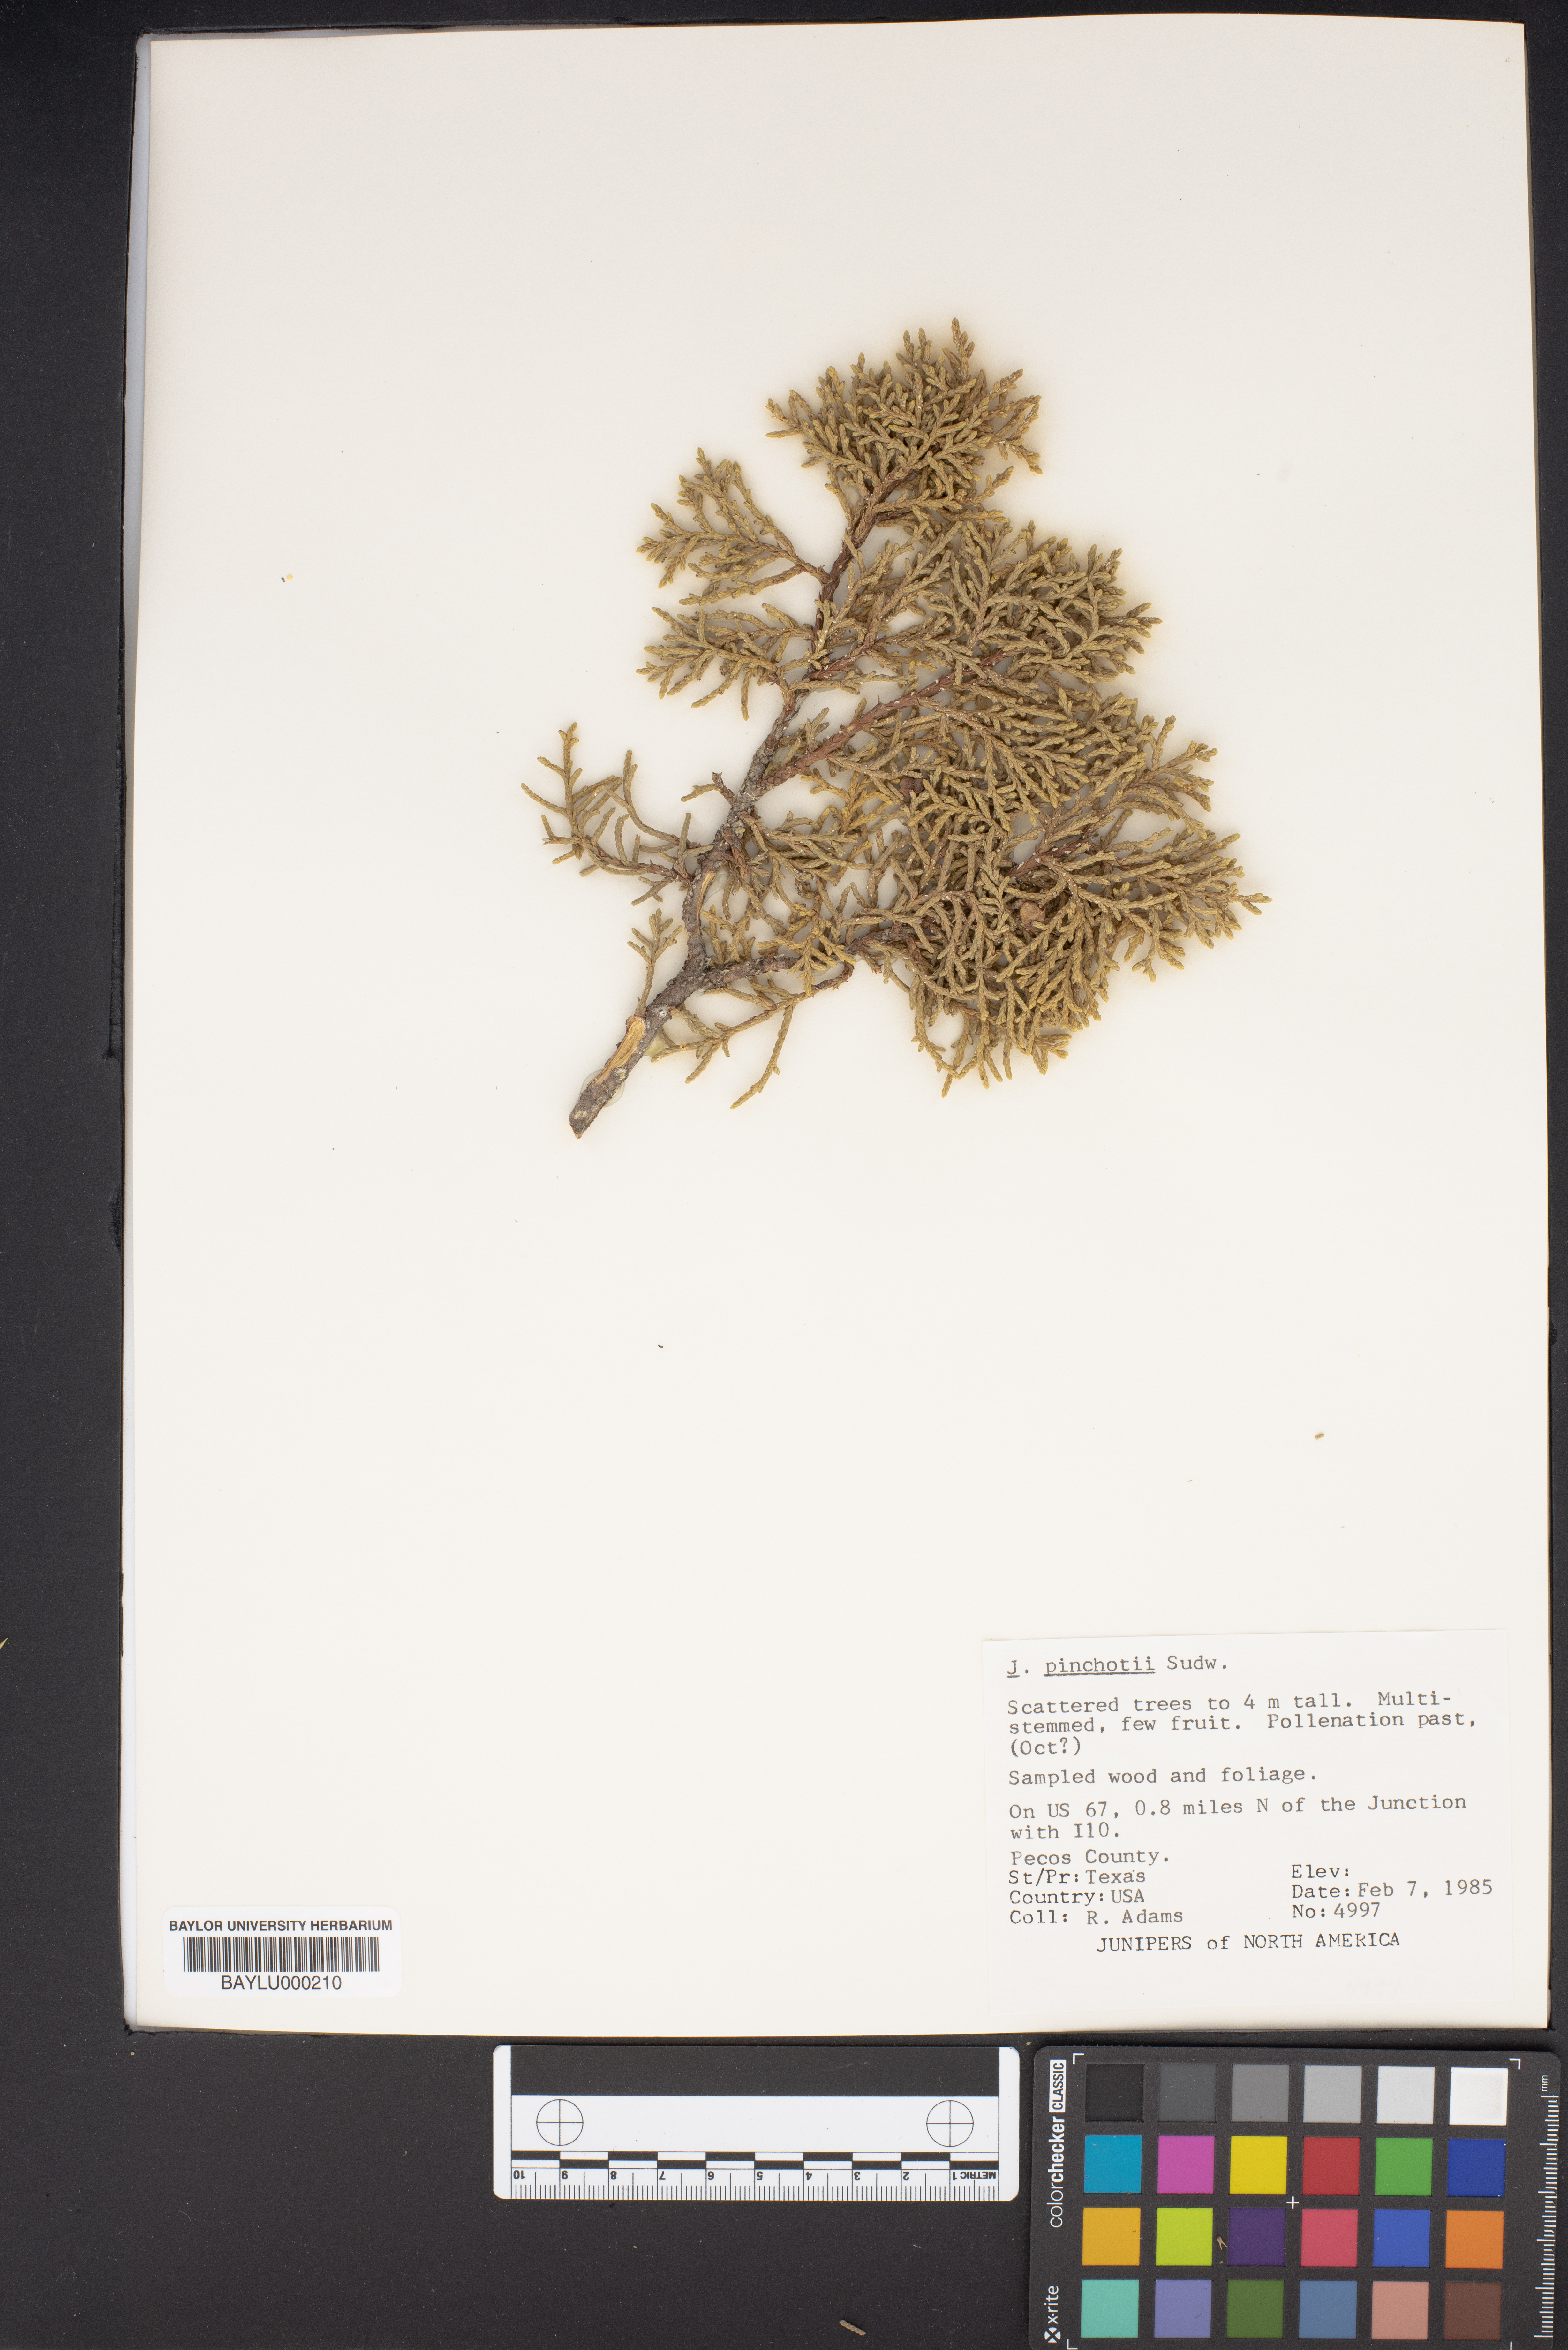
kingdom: Plantae
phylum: Tracheophyta
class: Pinopsida
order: Pinales
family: Cupressaceae
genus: Juniperus
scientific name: Juniperus pinchotii
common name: Pinchot juniper
